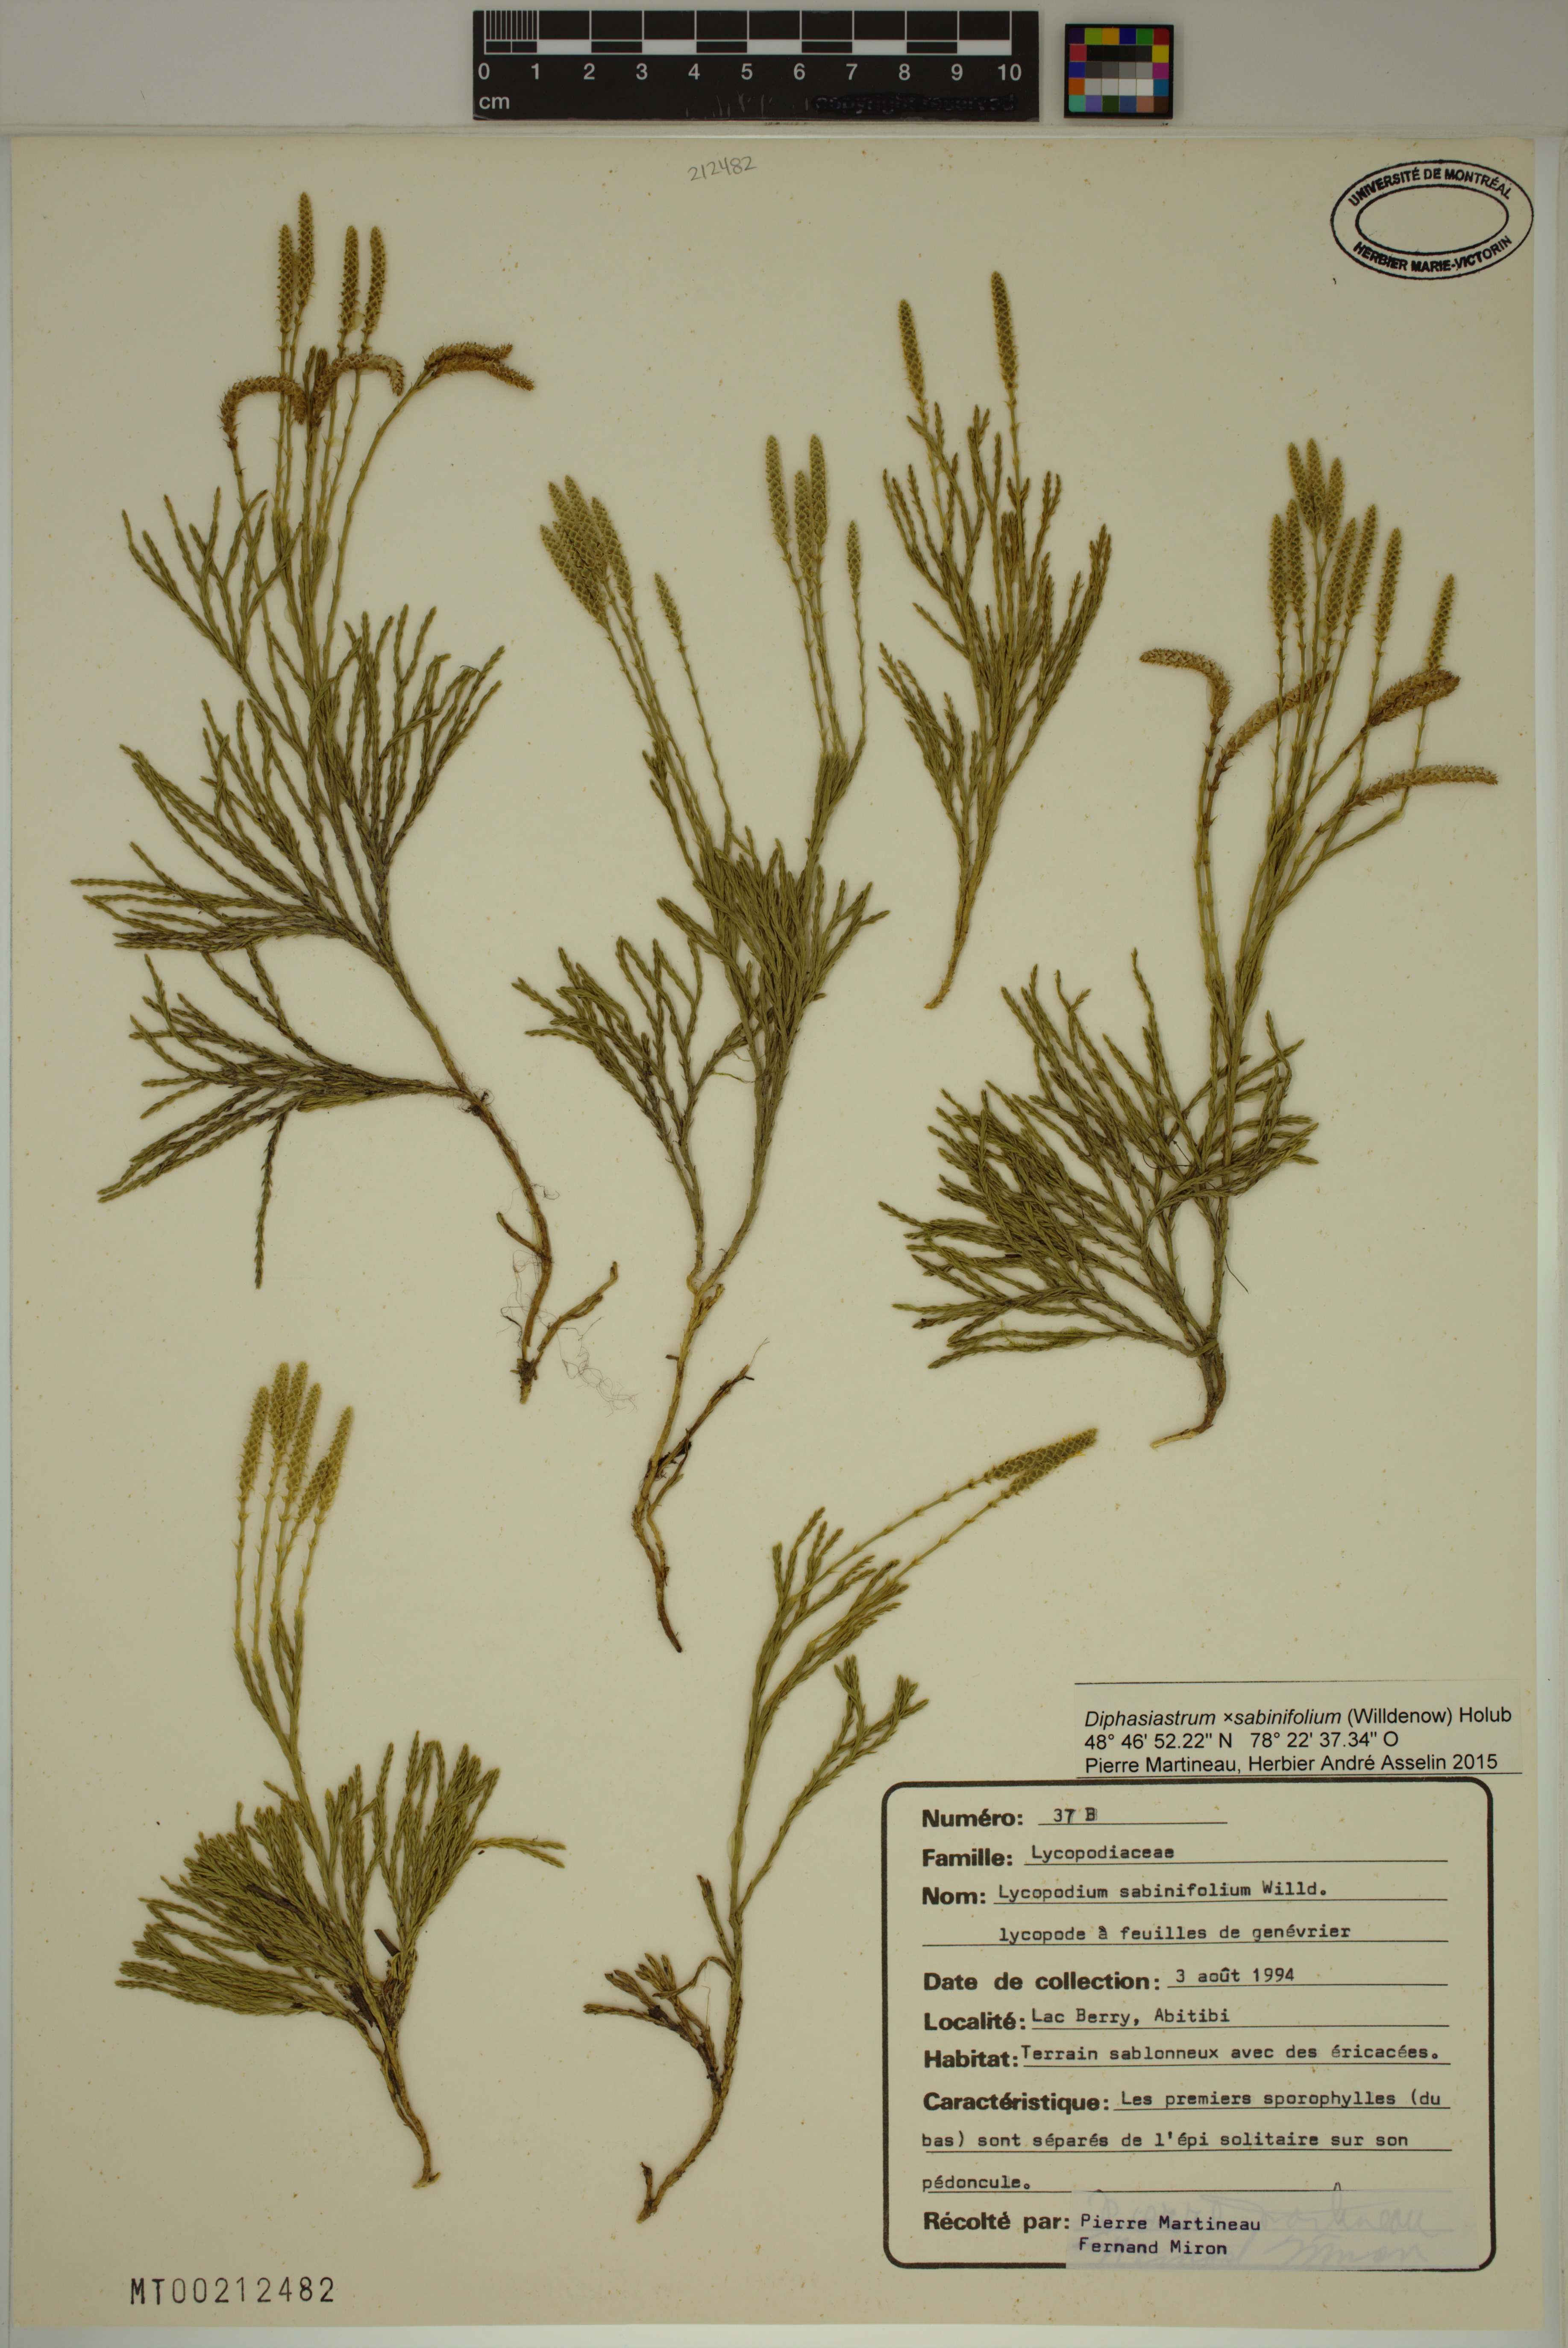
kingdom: Plantae
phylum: Tracheophyta
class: Lycopodiopsida
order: Lycopodiales
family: Lycopodiaceae
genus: Diphasiastrum
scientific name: Diphasiastrum sabinifolium
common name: Juniper clubmoss
